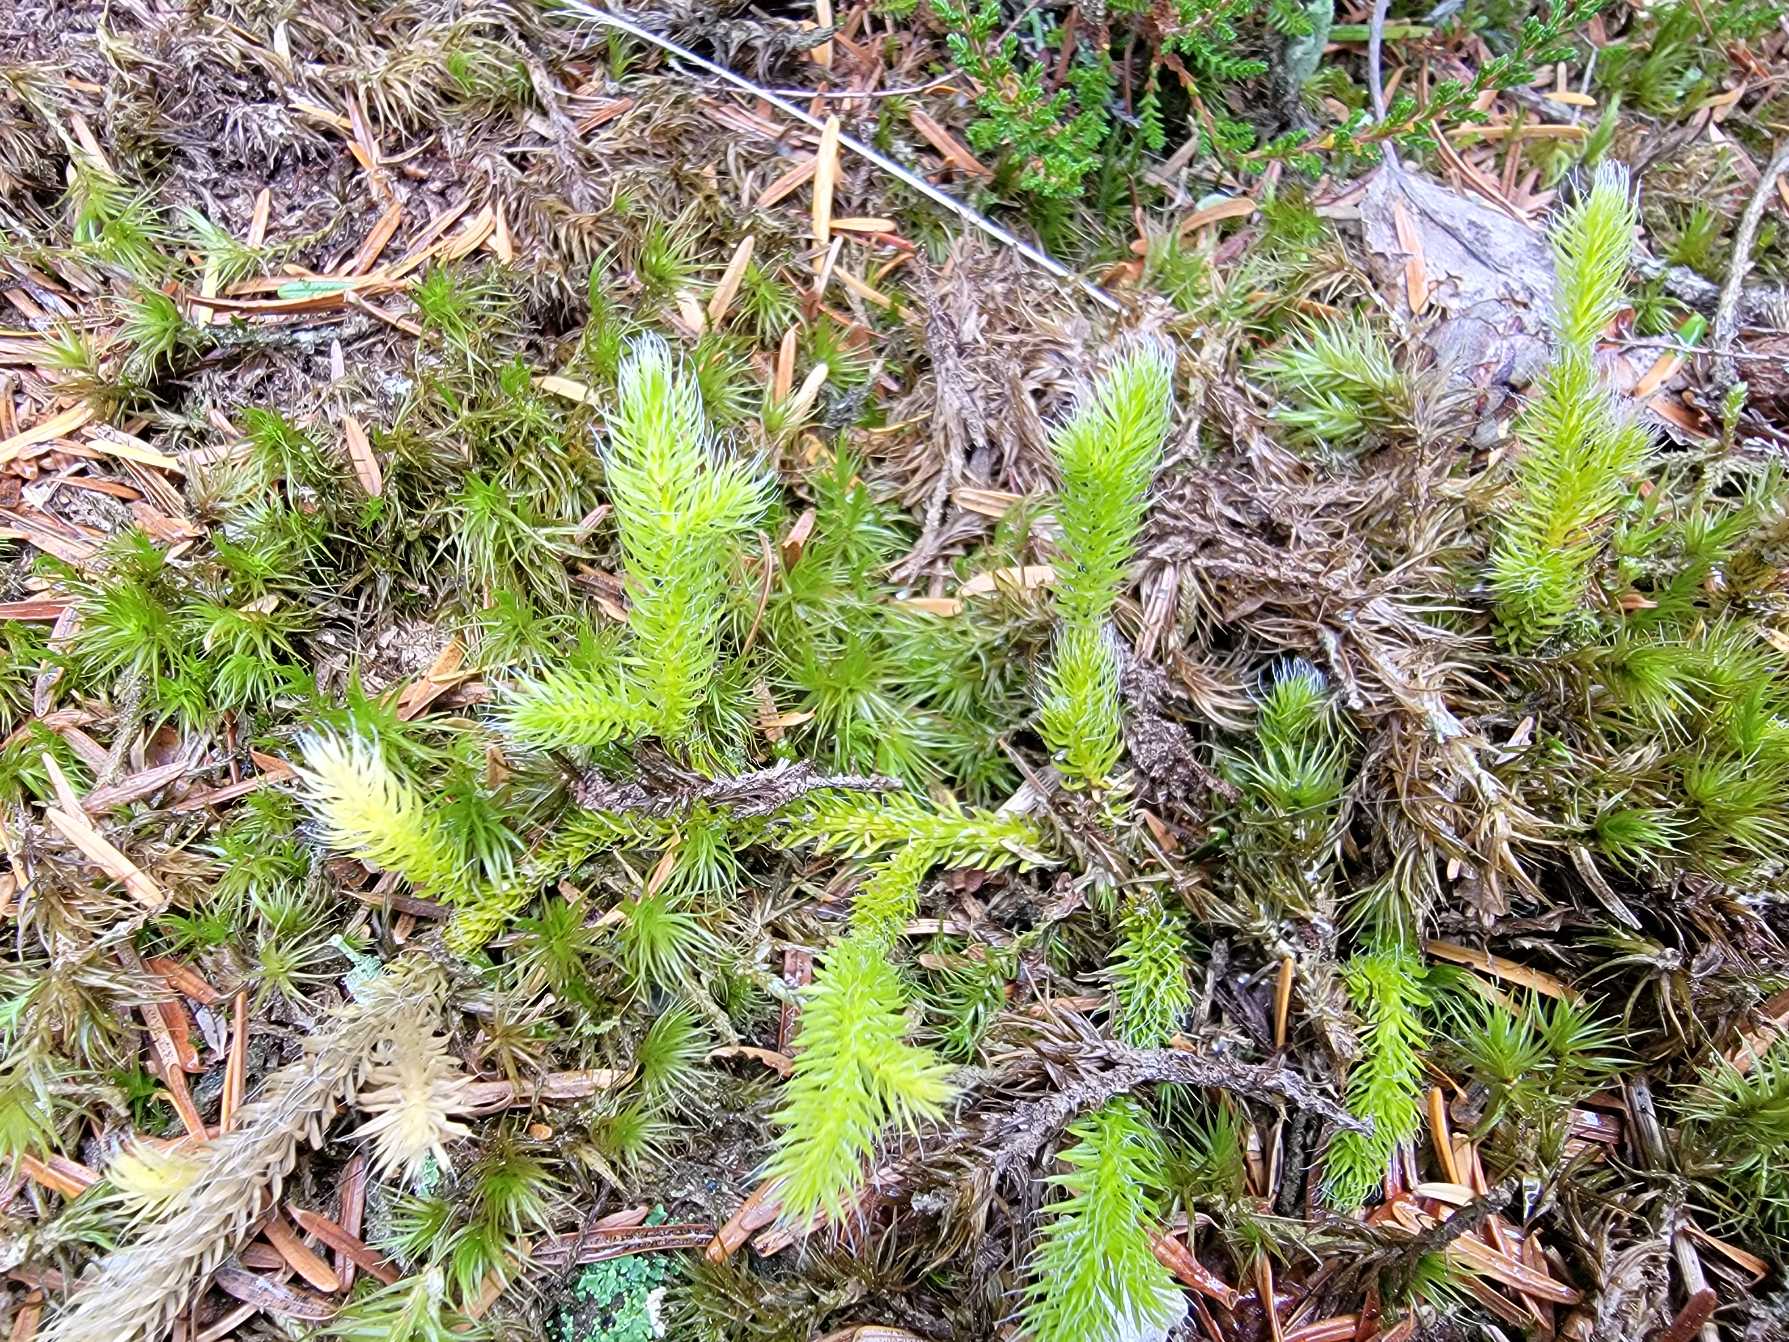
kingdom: Plantae
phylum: Tracheophyta
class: Lycopodiopsida
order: Lycopodiales
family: Lycopodiaceae
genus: Lycopodium
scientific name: Lycopodium clavatum
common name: Almindelig ulvefod
